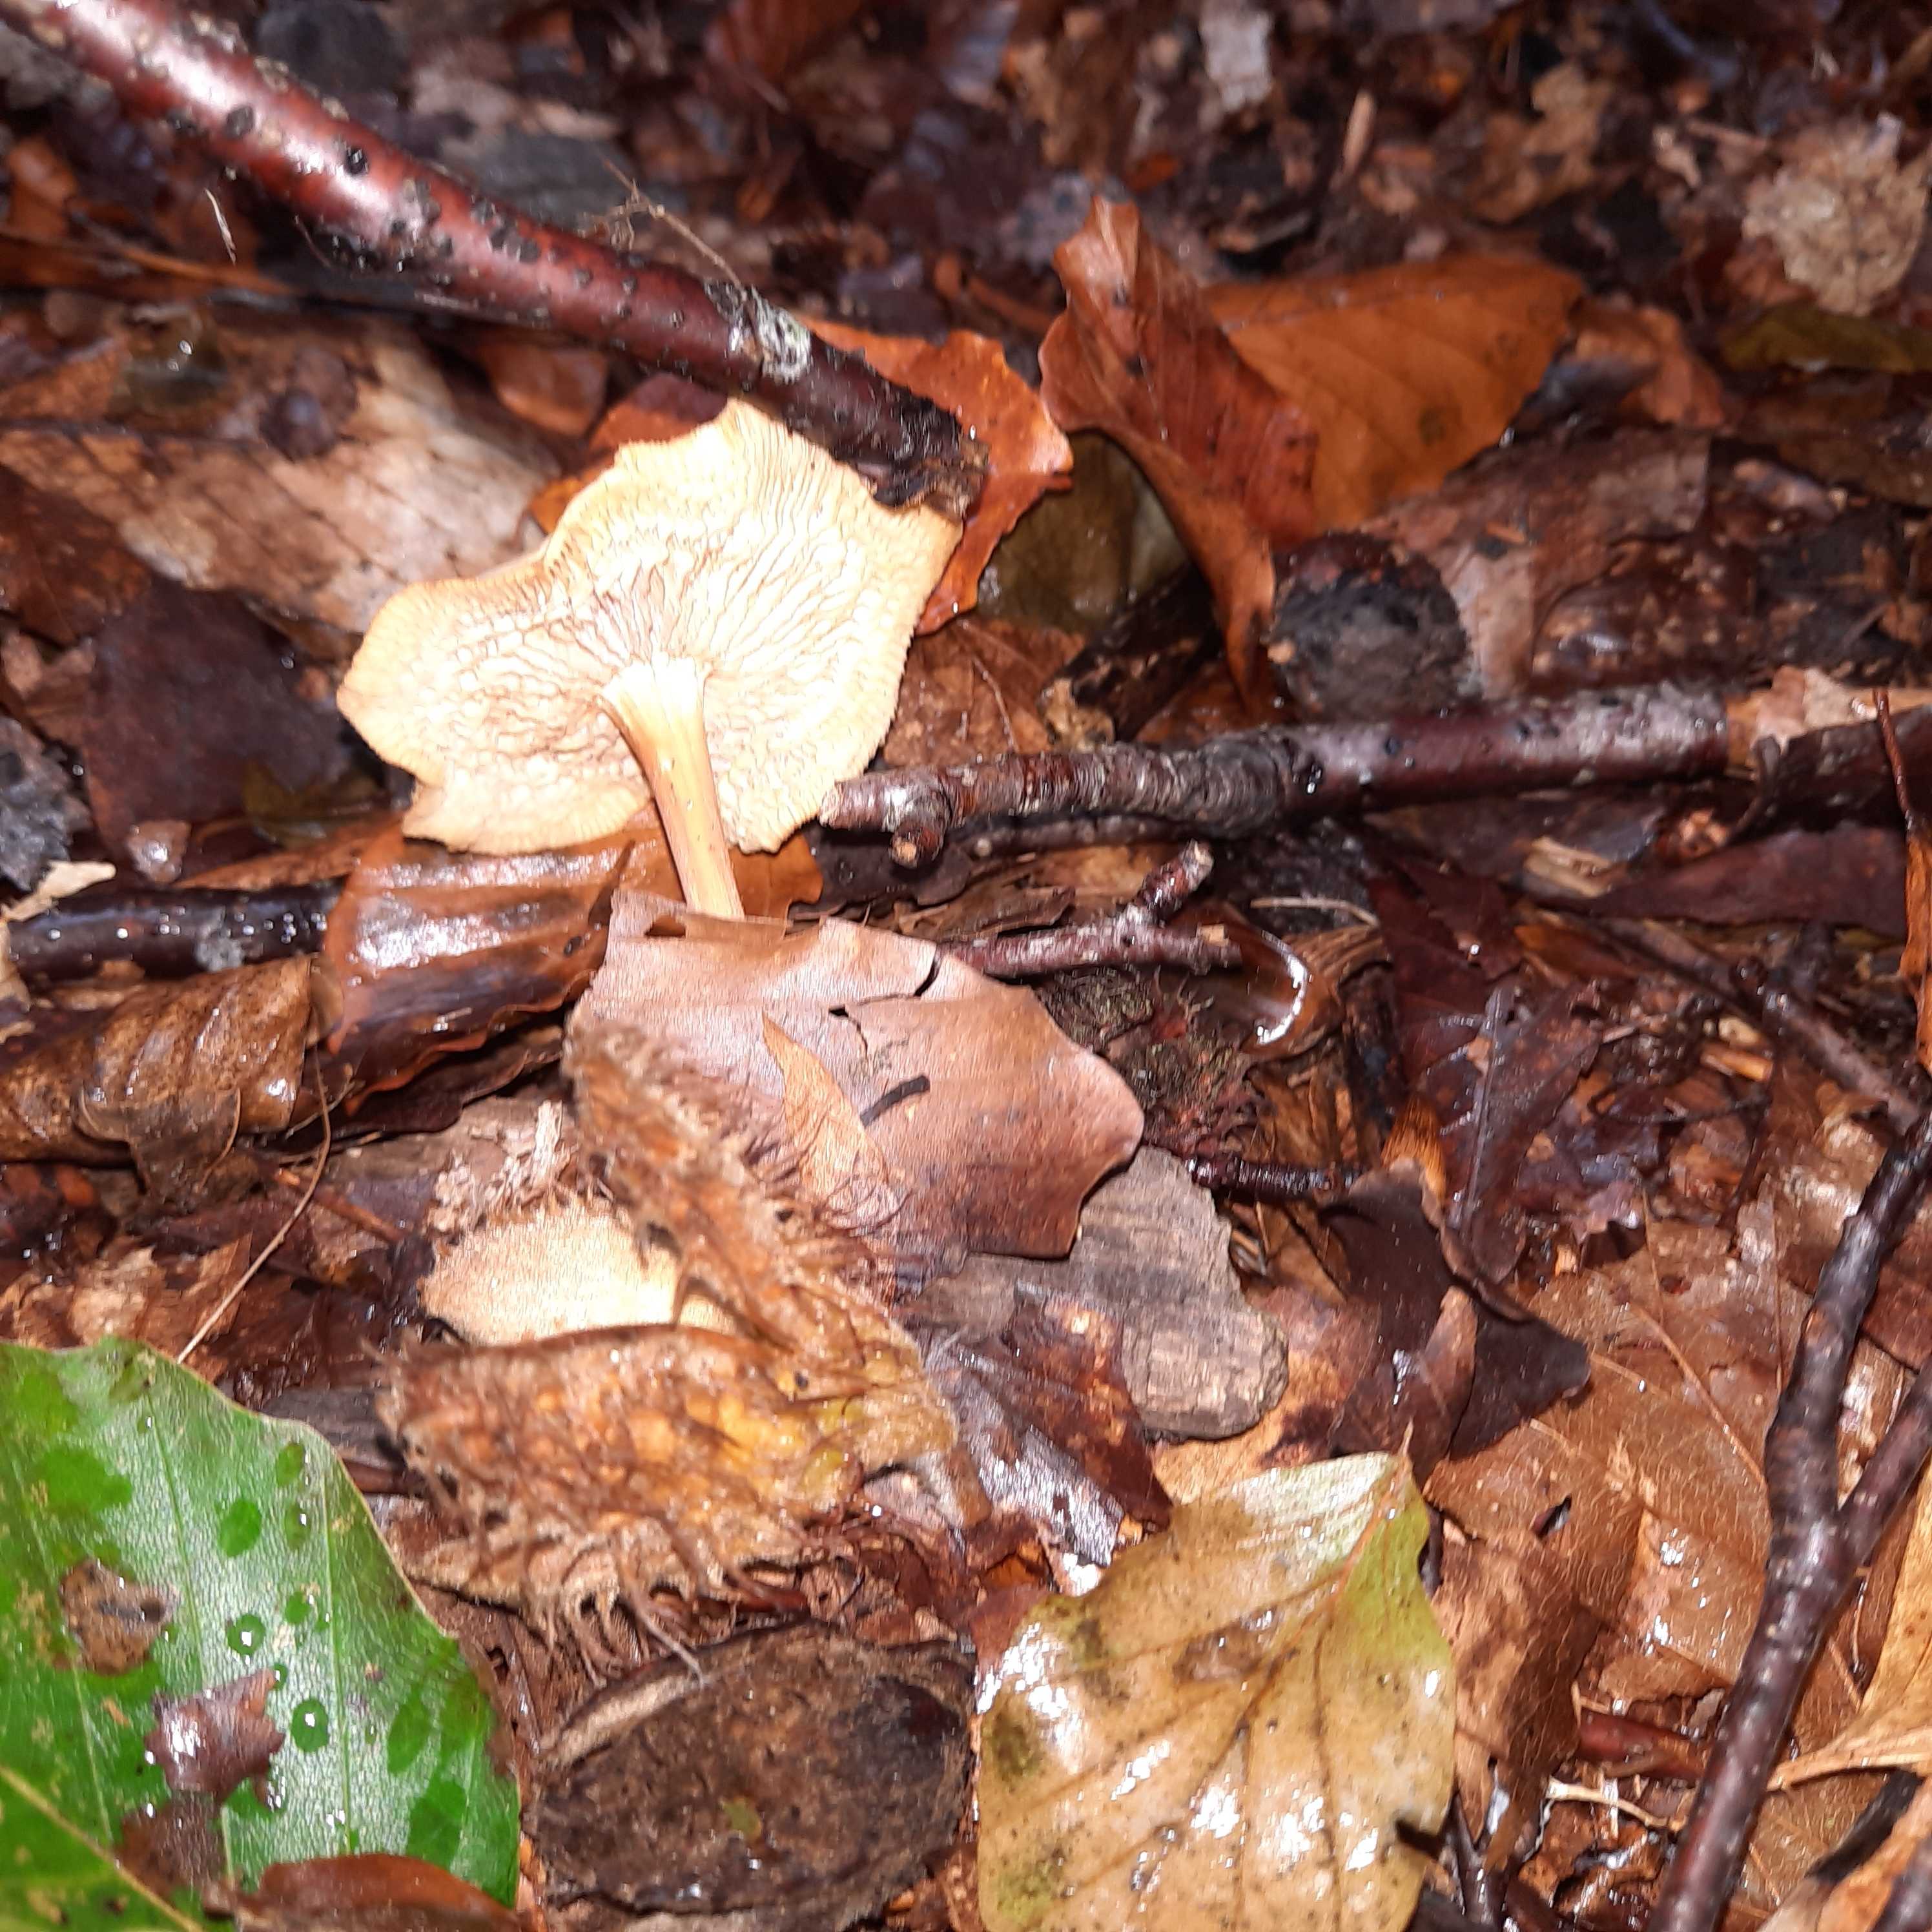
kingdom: Fungi
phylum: Basidiomycota
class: Agaricomycetes
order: Agaricales
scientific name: Agaricales
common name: champignonordenen
